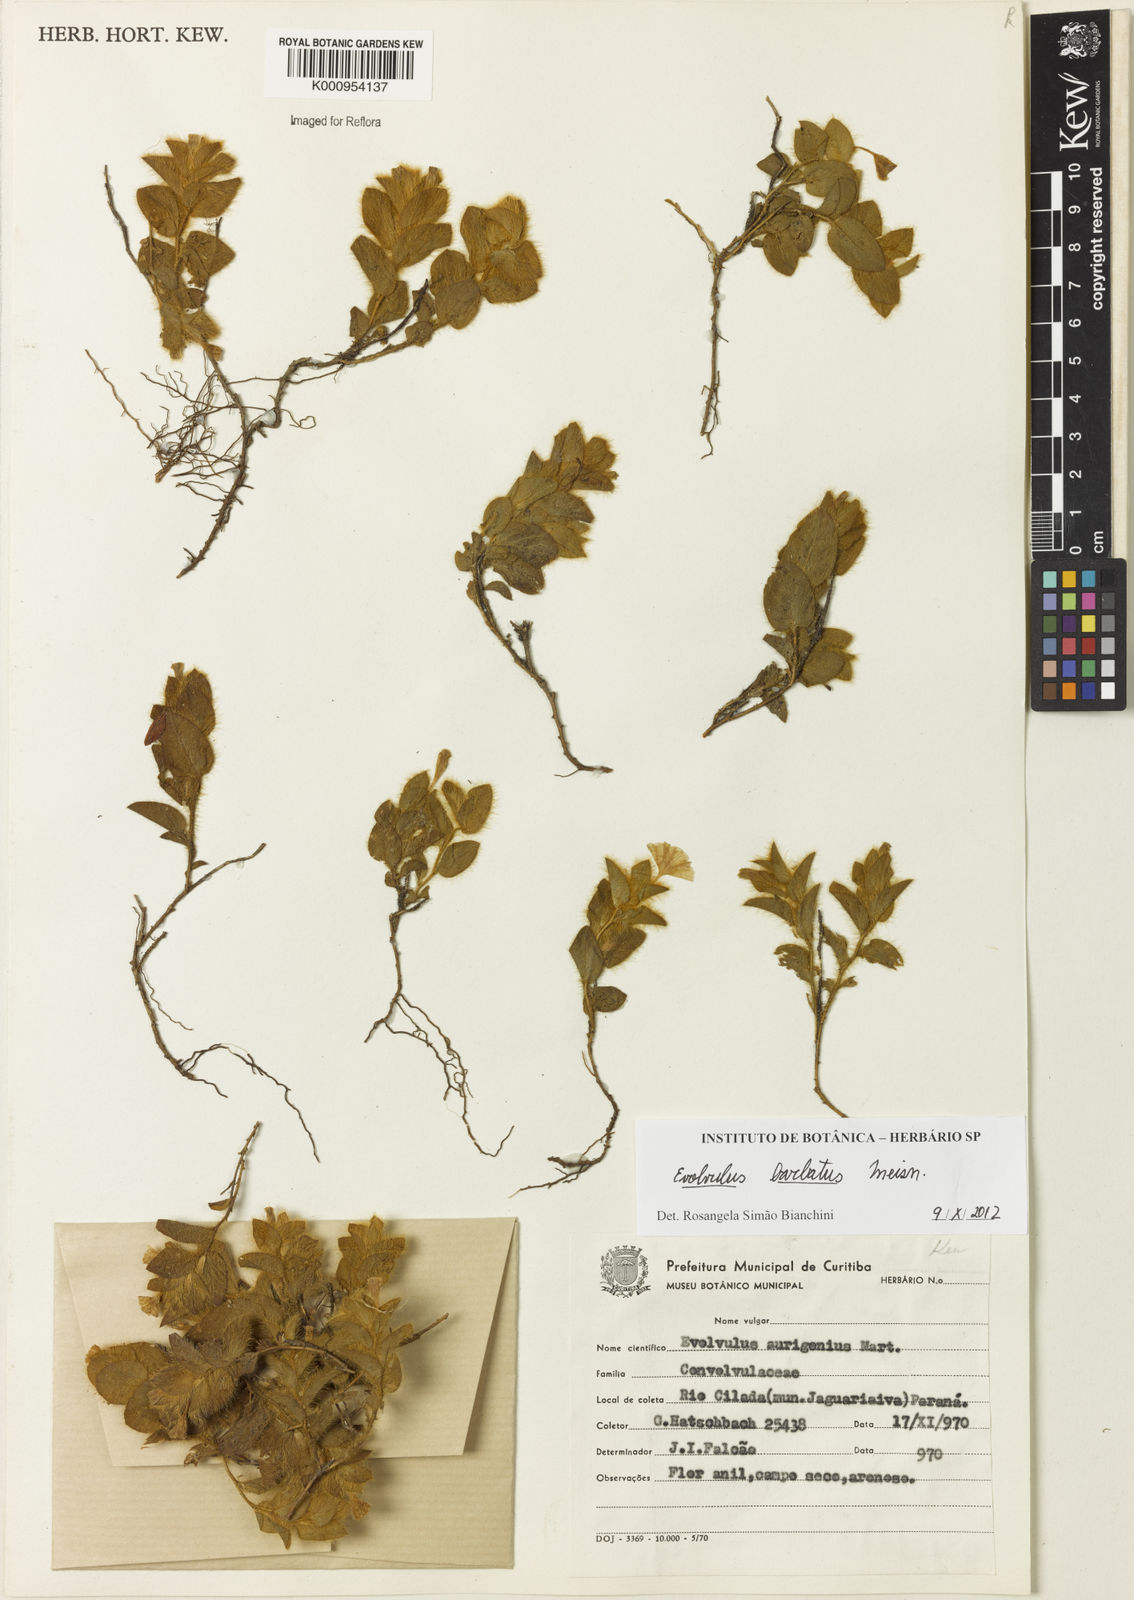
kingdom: Plantae
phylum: Tracheophyta
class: Magnoliopsida
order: Solanales
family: Convolvulaceae
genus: Evolvulus
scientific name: Evolvulus barbatus
